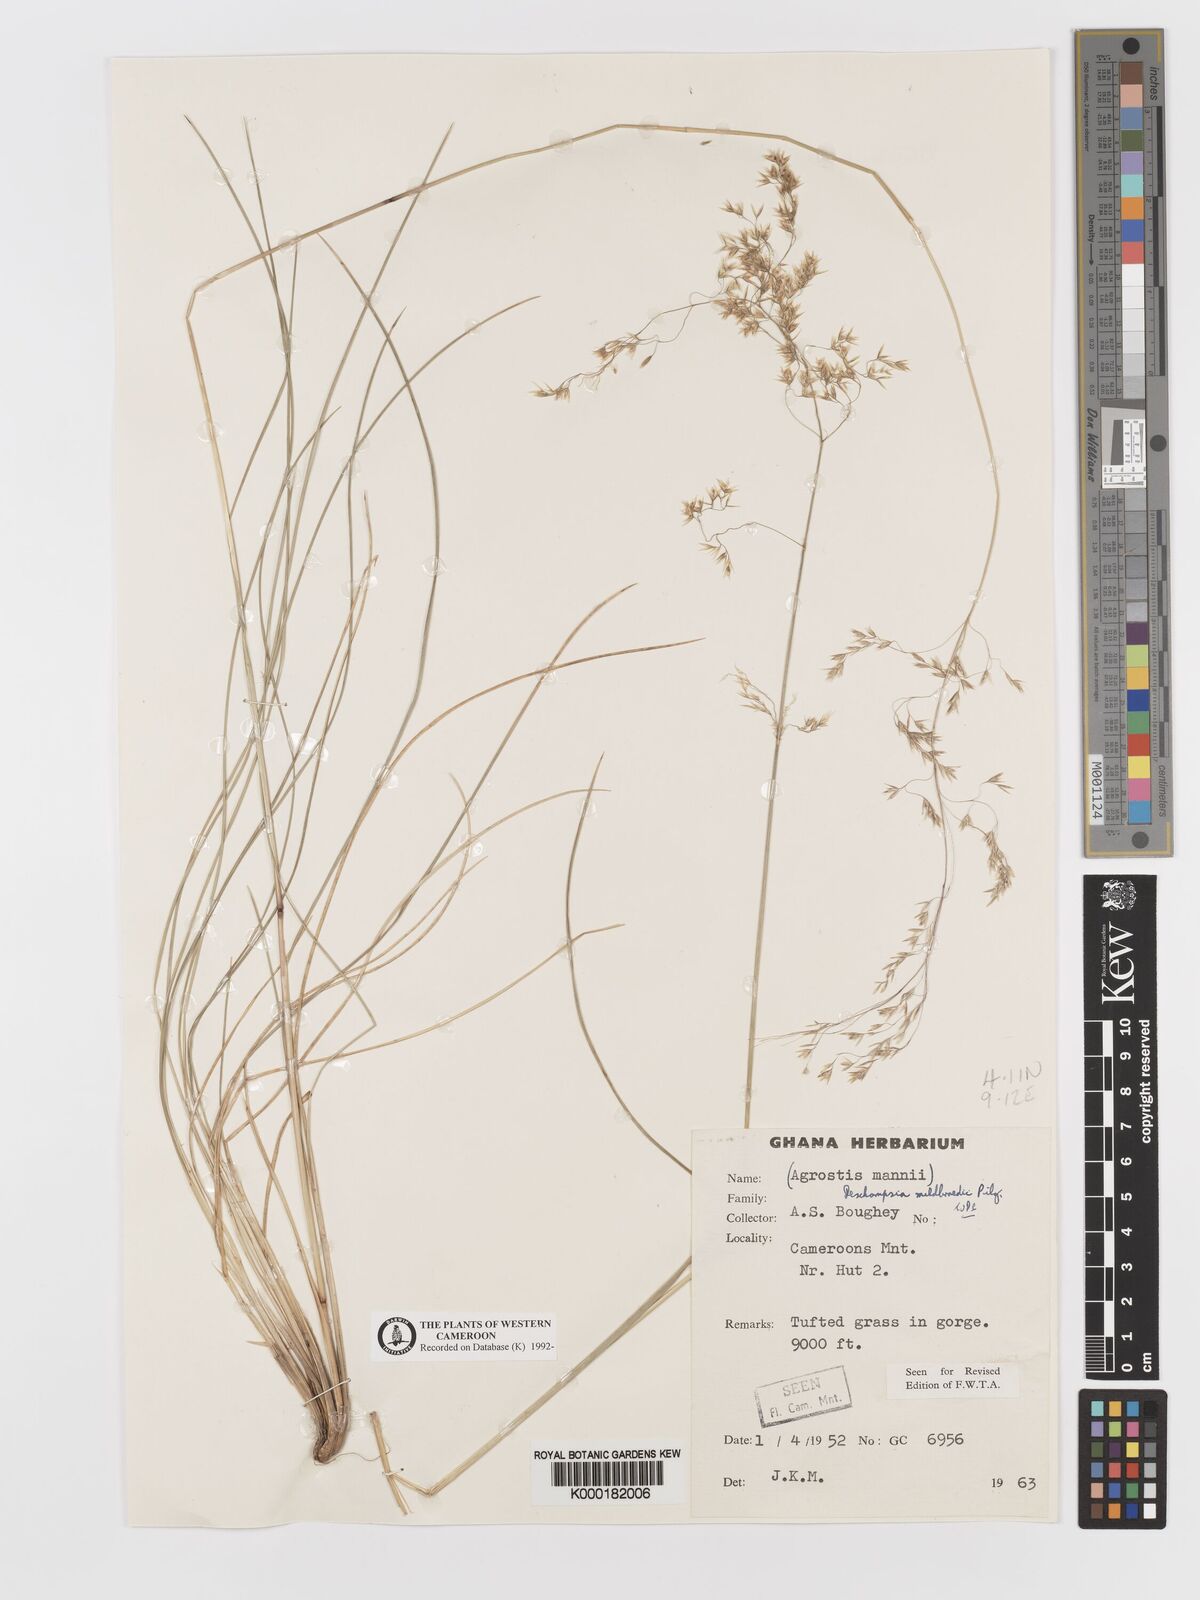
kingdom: Plantae
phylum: Tracheophyta
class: Liliopsida
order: Poales
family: Poaceae
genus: Deschampsia
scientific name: Deschampsia mildbraedii
